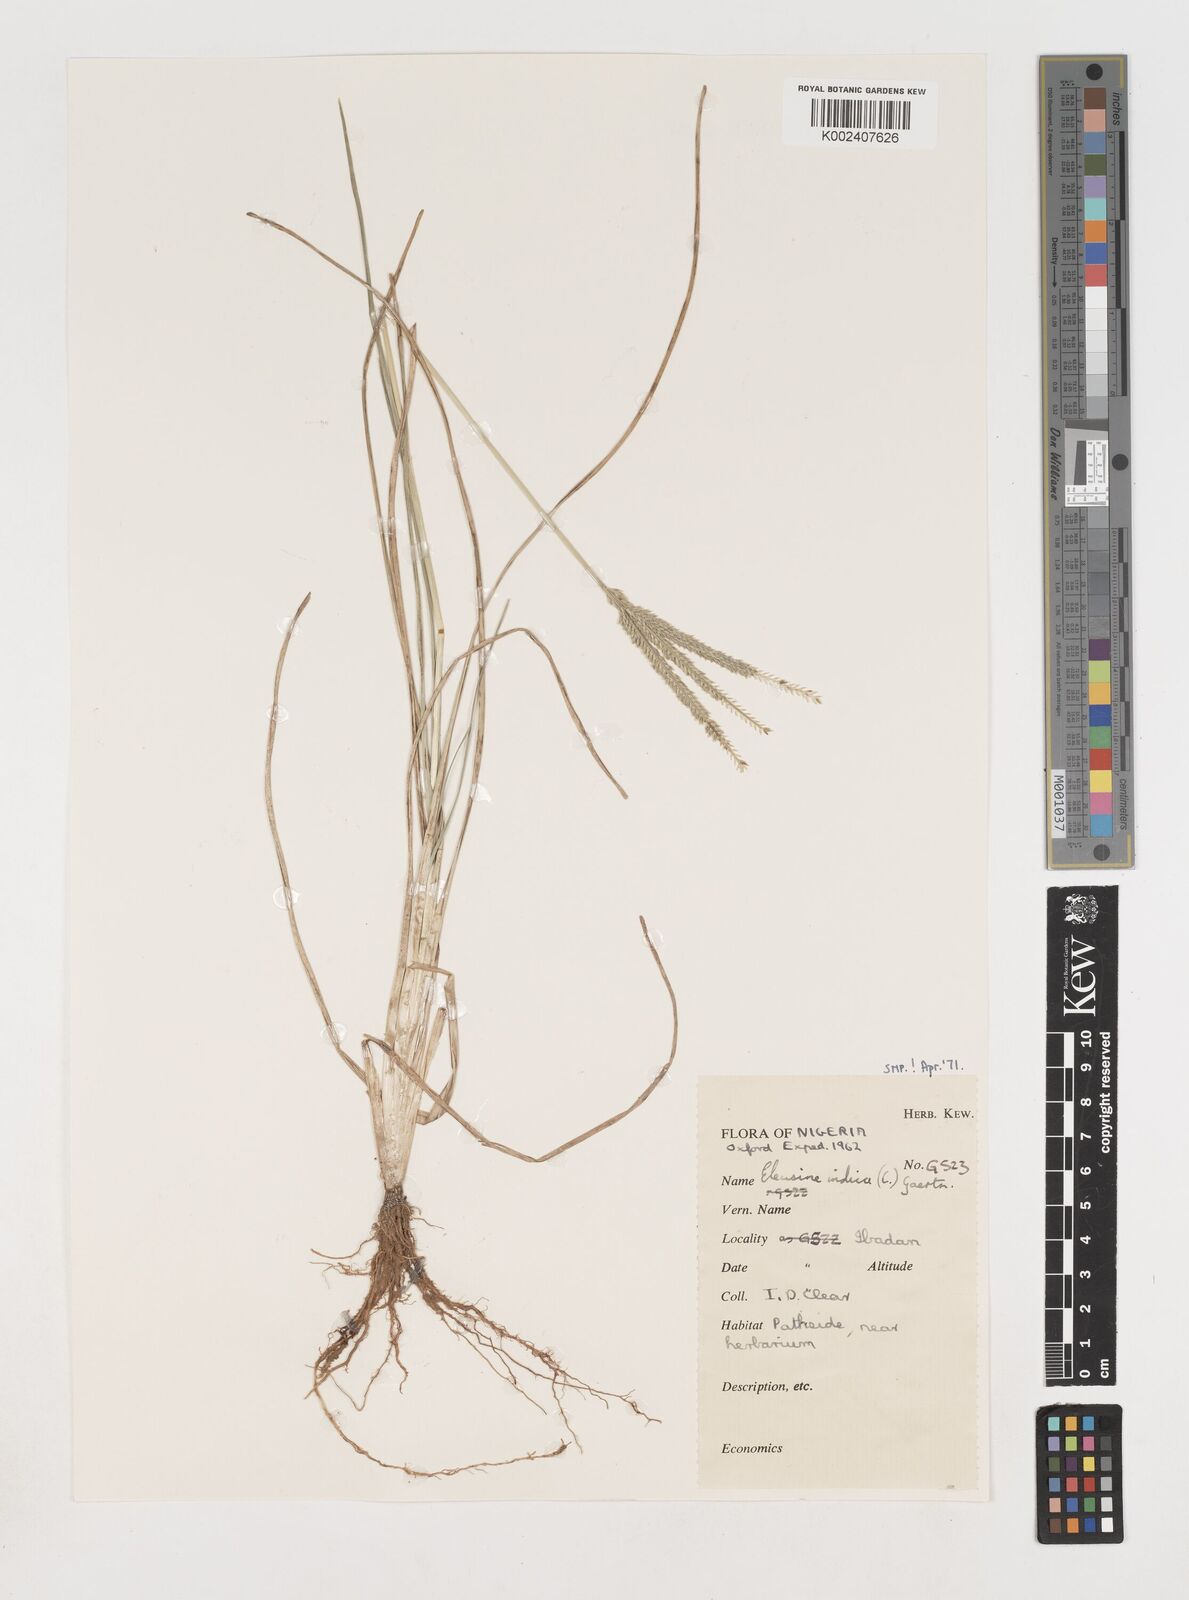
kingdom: Plantae
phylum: Tracheophyta
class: Liliopsida
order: Poales
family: Poaceae
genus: Eleusine
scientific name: Eleusine indica
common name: Yard-grass
